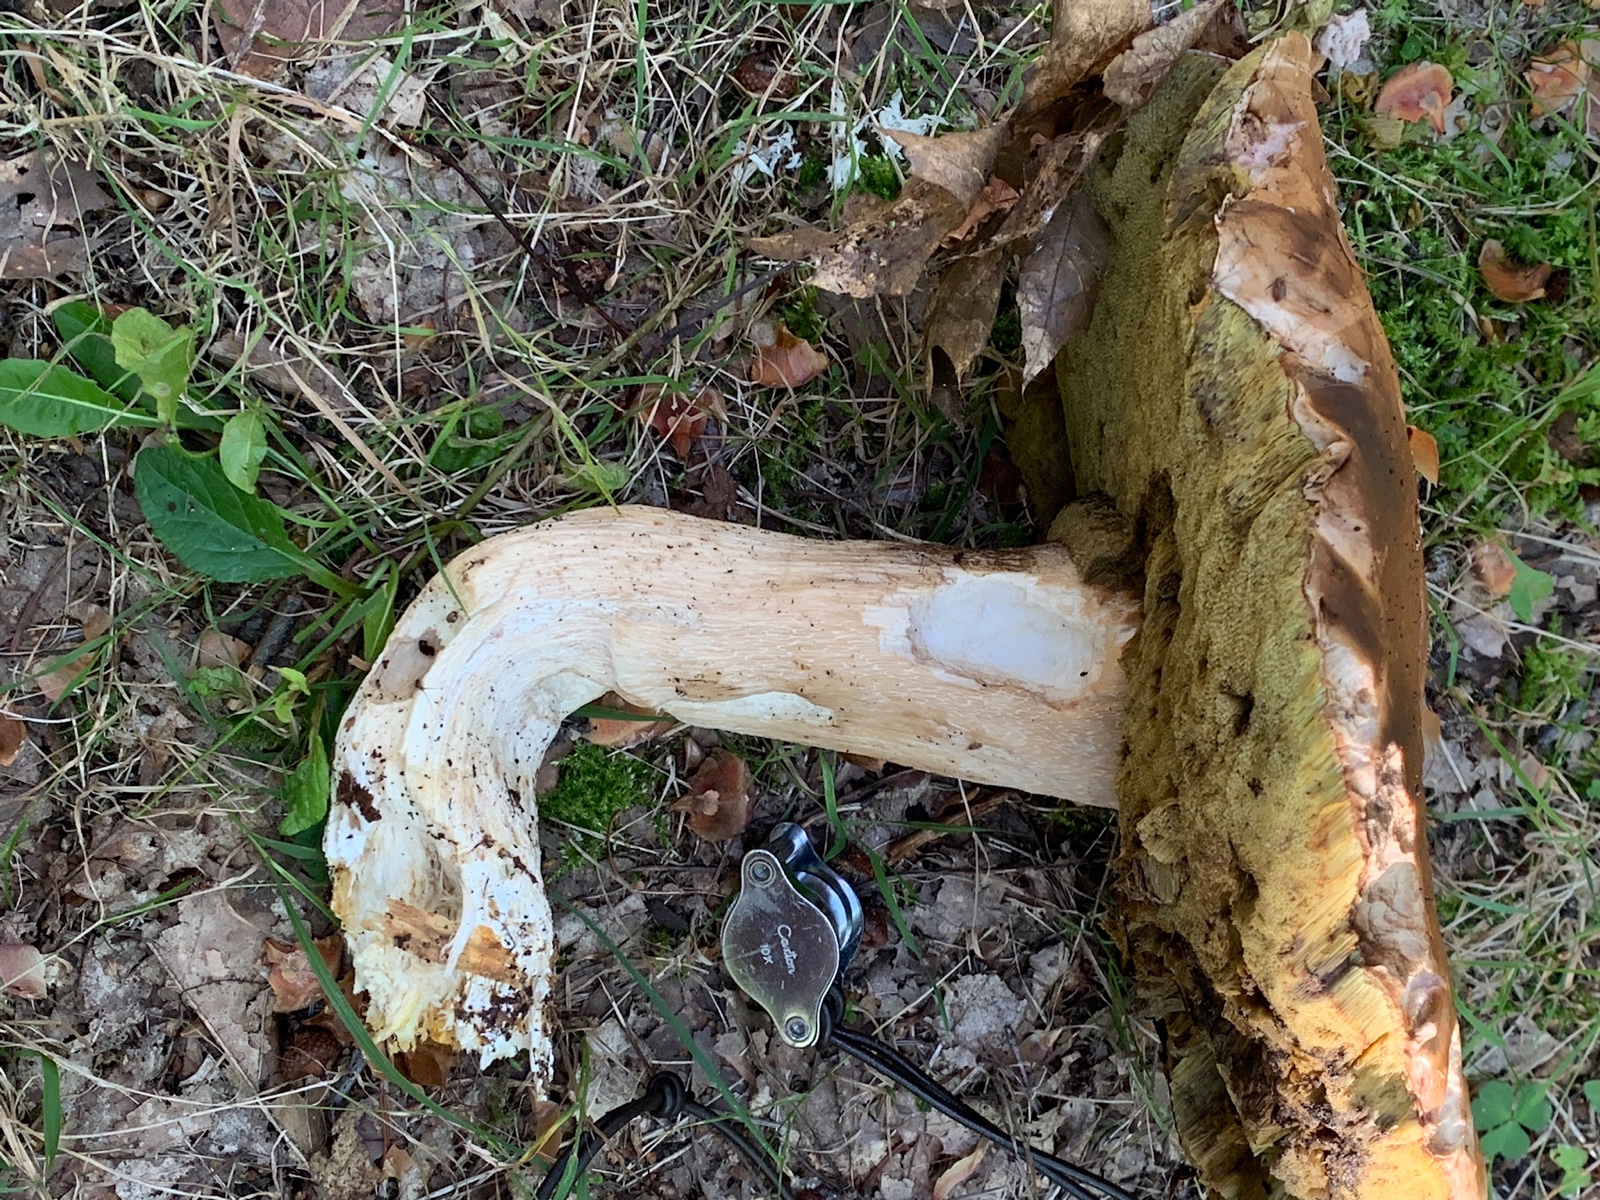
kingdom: Fungi
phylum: Basidiomycota
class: Agaricomycetes
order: Boletales
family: Boletaceae
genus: Boletus
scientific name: Boletus edulis
